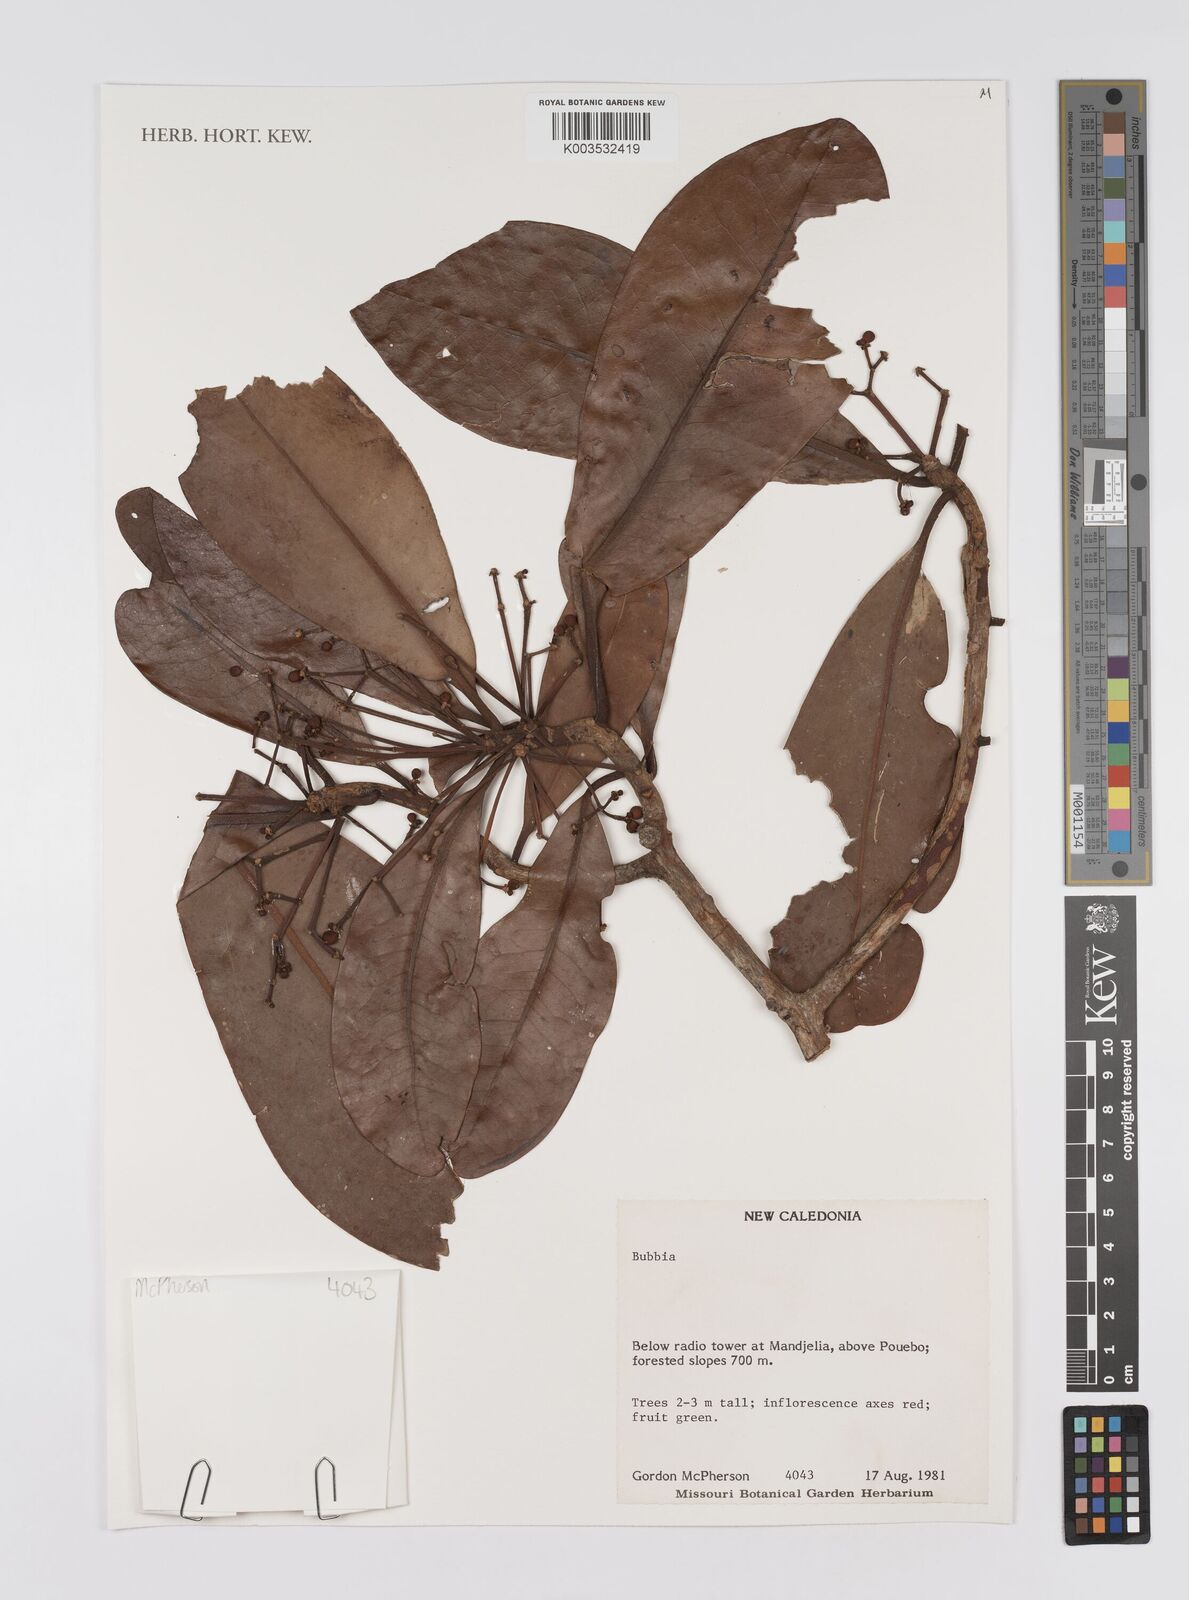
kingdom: Plantae
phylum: Tracheophyta
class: Magnoliopsida
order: Canellales
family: Winteraceae
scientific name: Winteraceae
